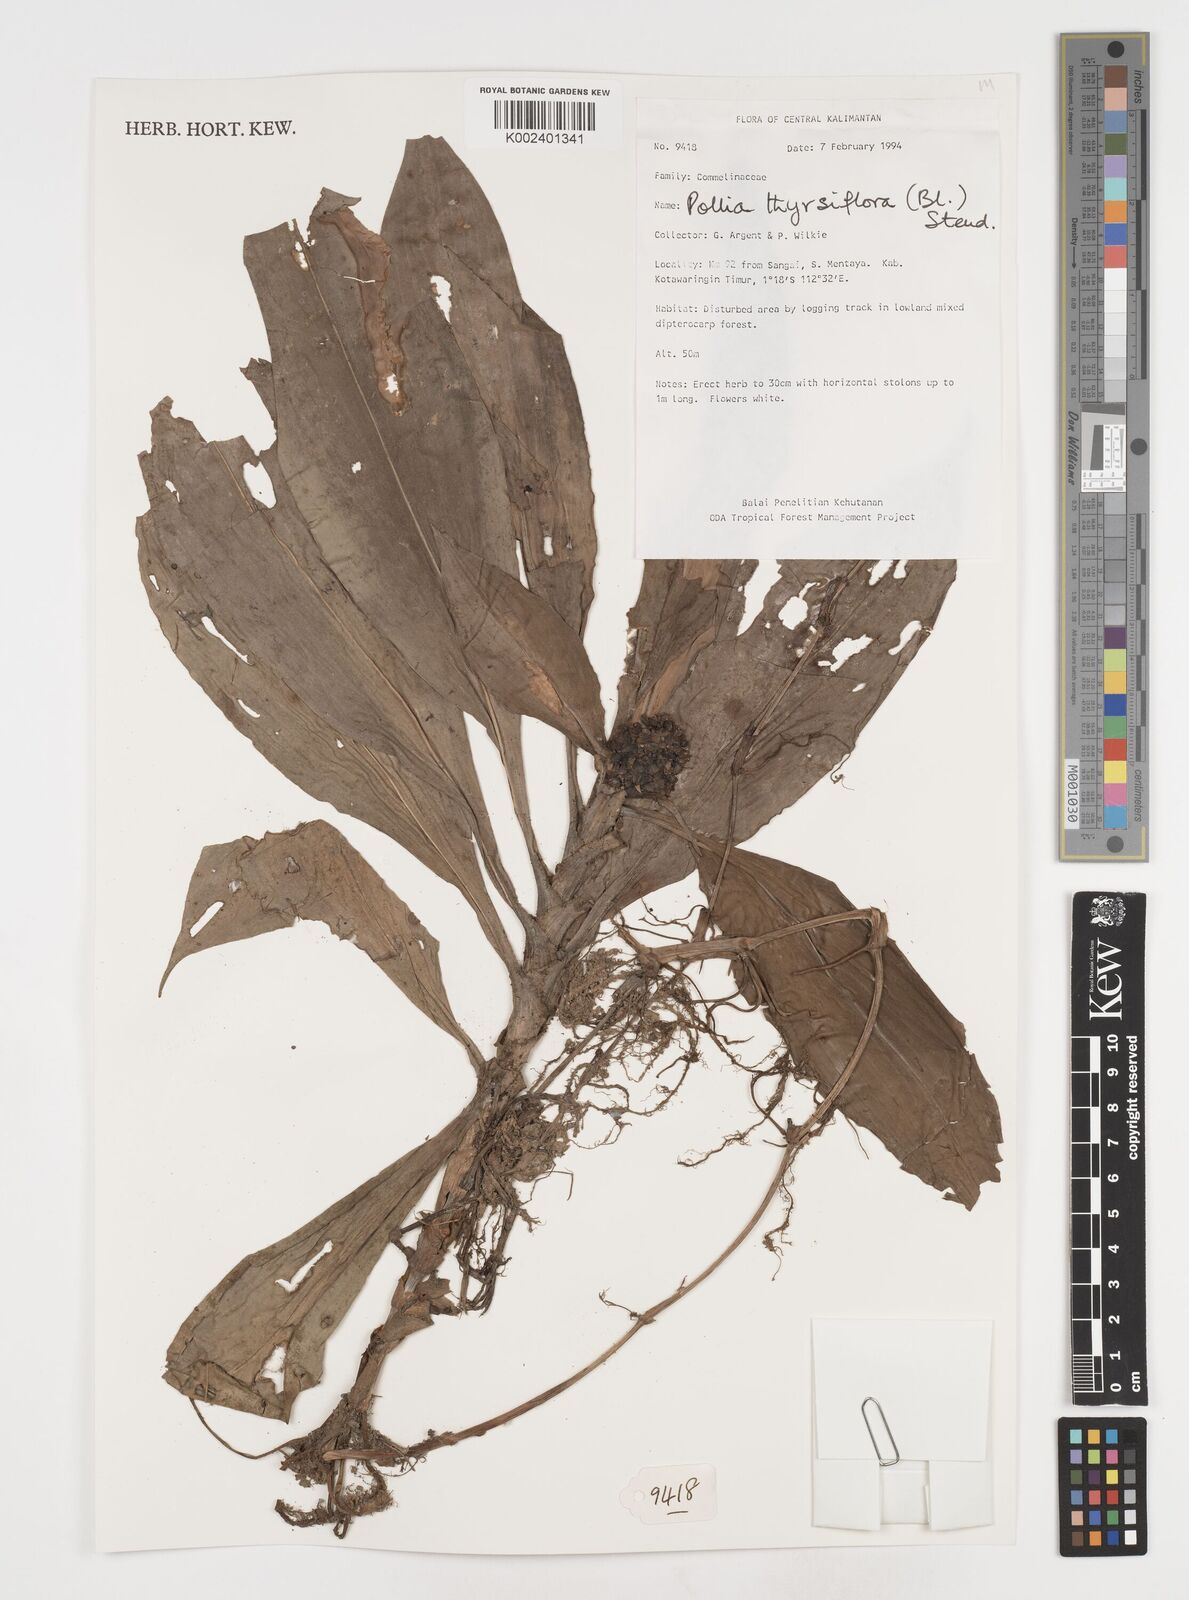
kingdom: Plantae
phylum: Tracheophyta
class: Liliopsida
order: Commelinales
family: Commelinaceae
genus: Pollia
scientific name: Pollia thyrsiflora
